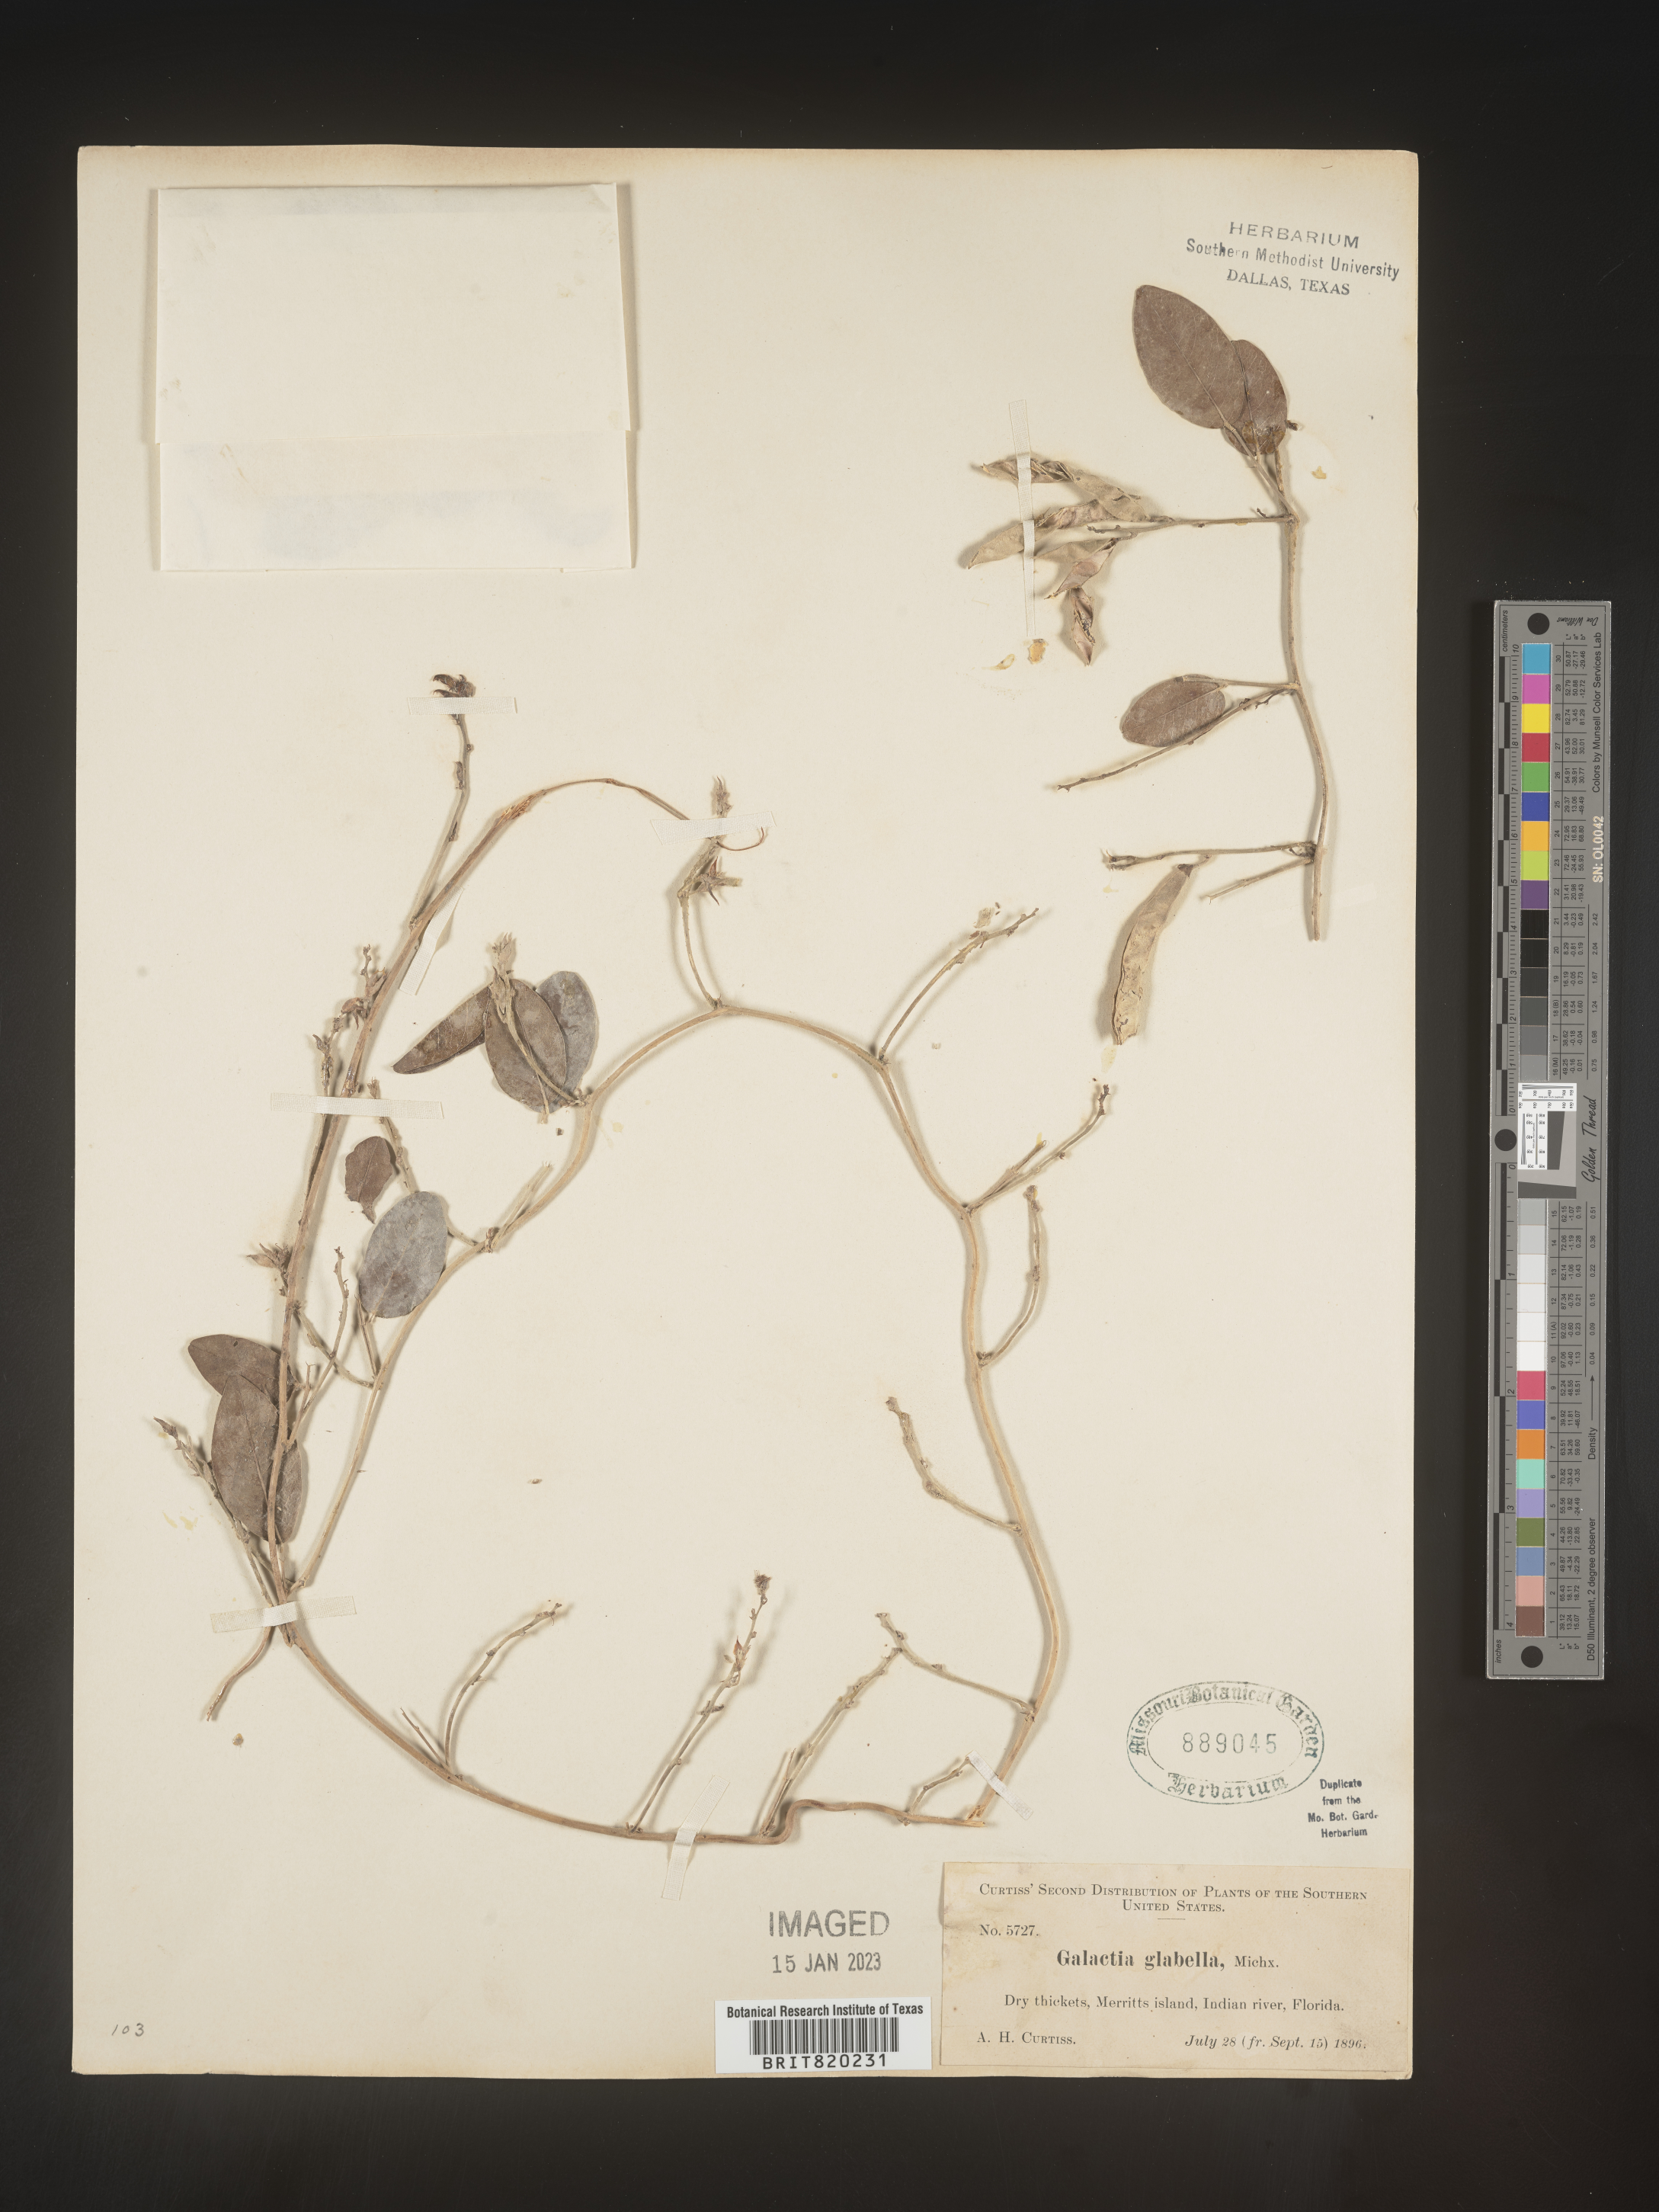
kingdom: Plantae
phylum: Tracheophyta
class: Magnoliopsida
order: Fabales
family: Fabaceae
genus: Galactia
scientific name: Galactia striata
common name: Florida hammock milkpea
